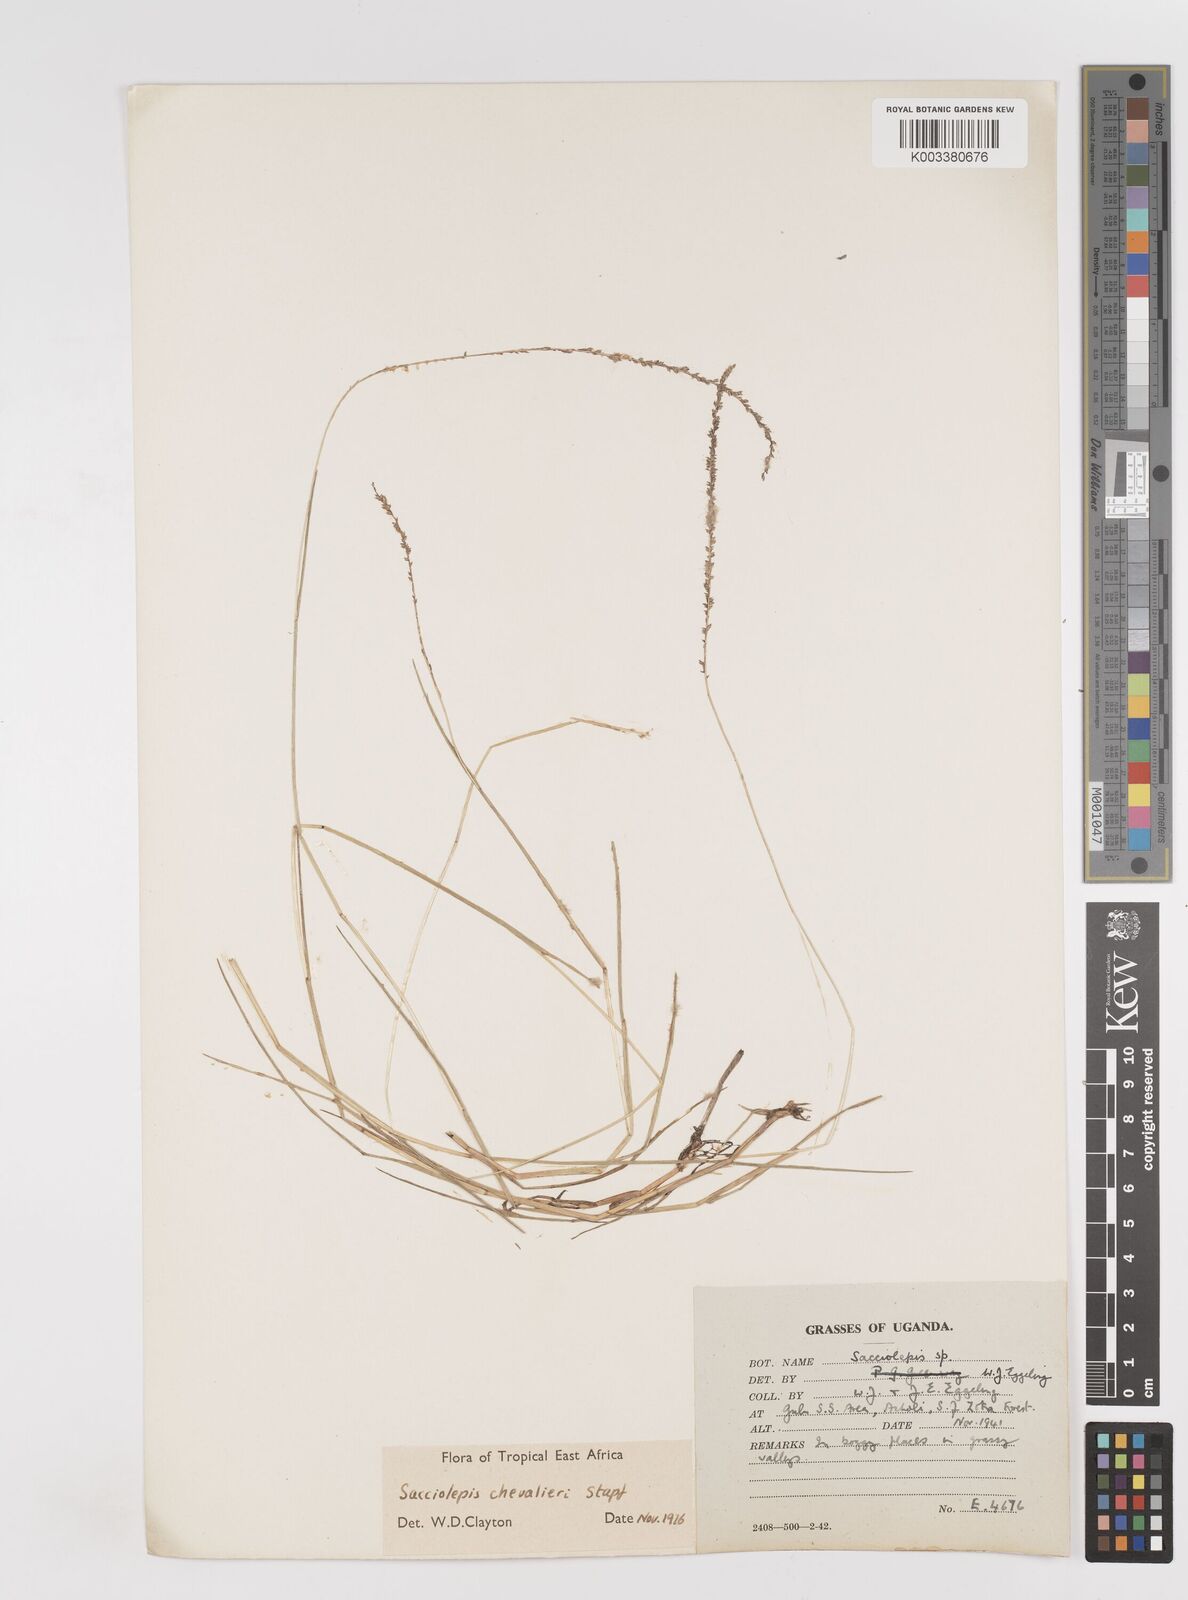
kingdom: Plantae
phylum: Tracheophyta
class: Liliopsida
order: Poales
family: Poaceae
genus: Sacciolepis
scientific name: Sacciolepis chevalieri
